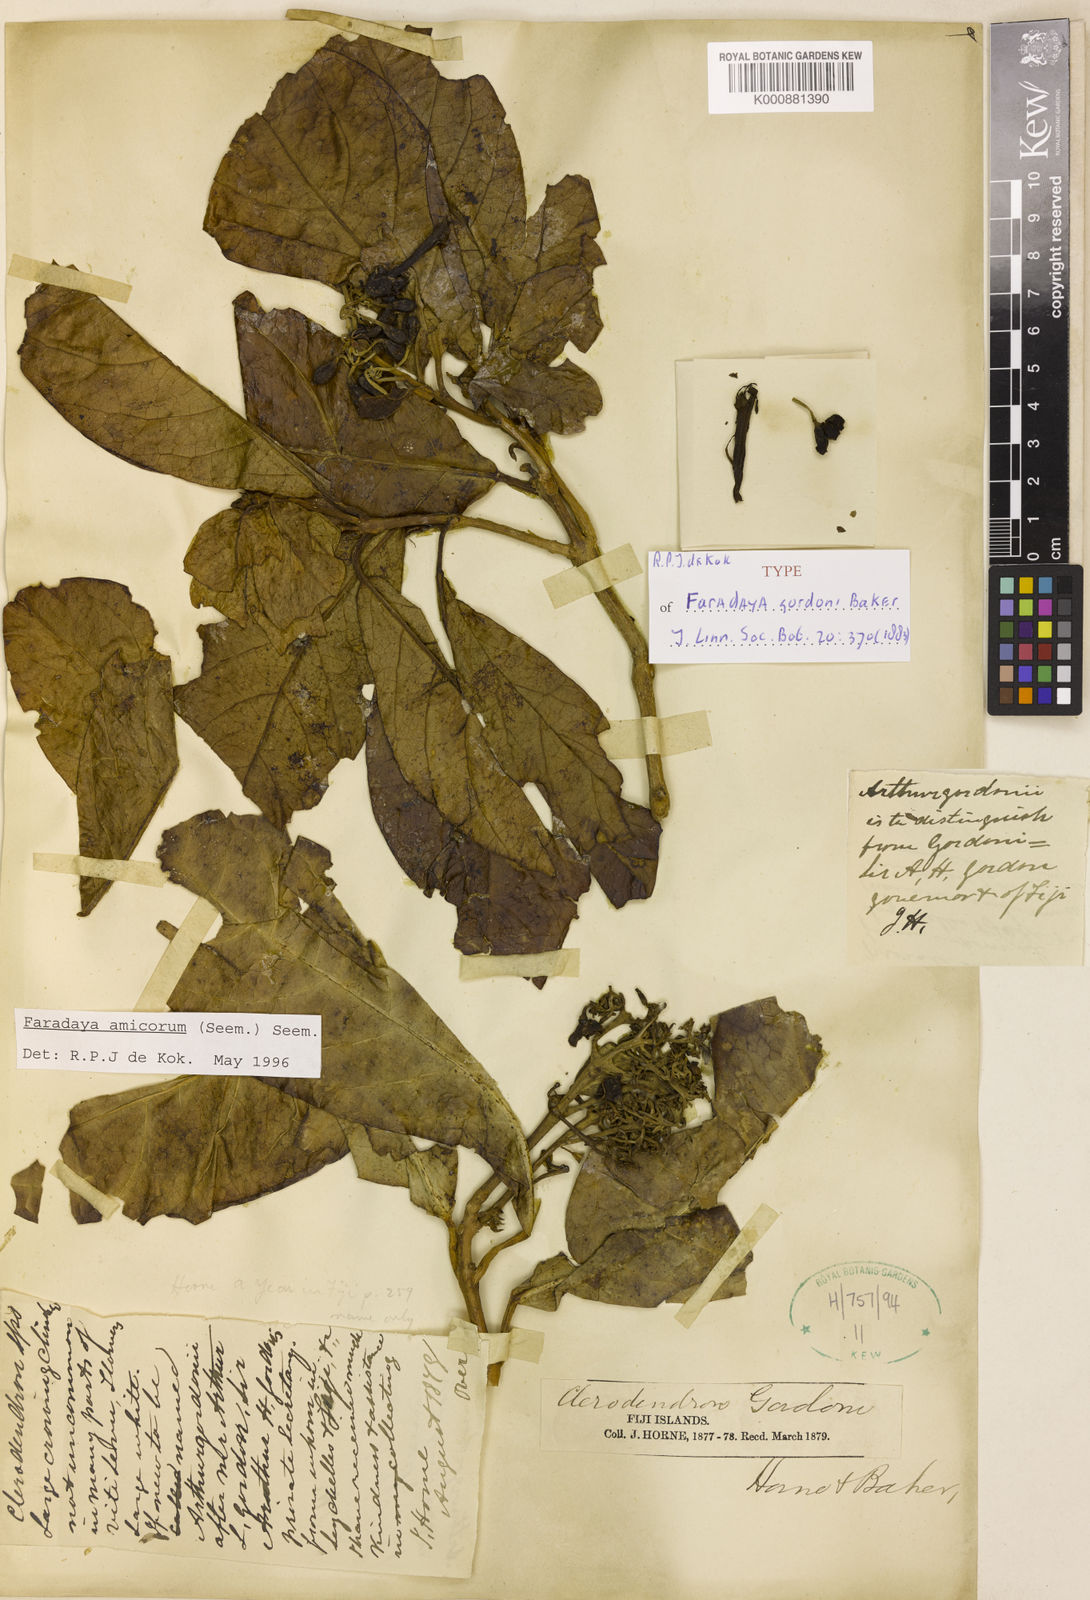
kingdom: Plantae
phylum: Tracheophyta
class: Magnoliopsida
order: Lamiales
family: Lamiaceae
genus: Oxera
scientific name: Oxera
